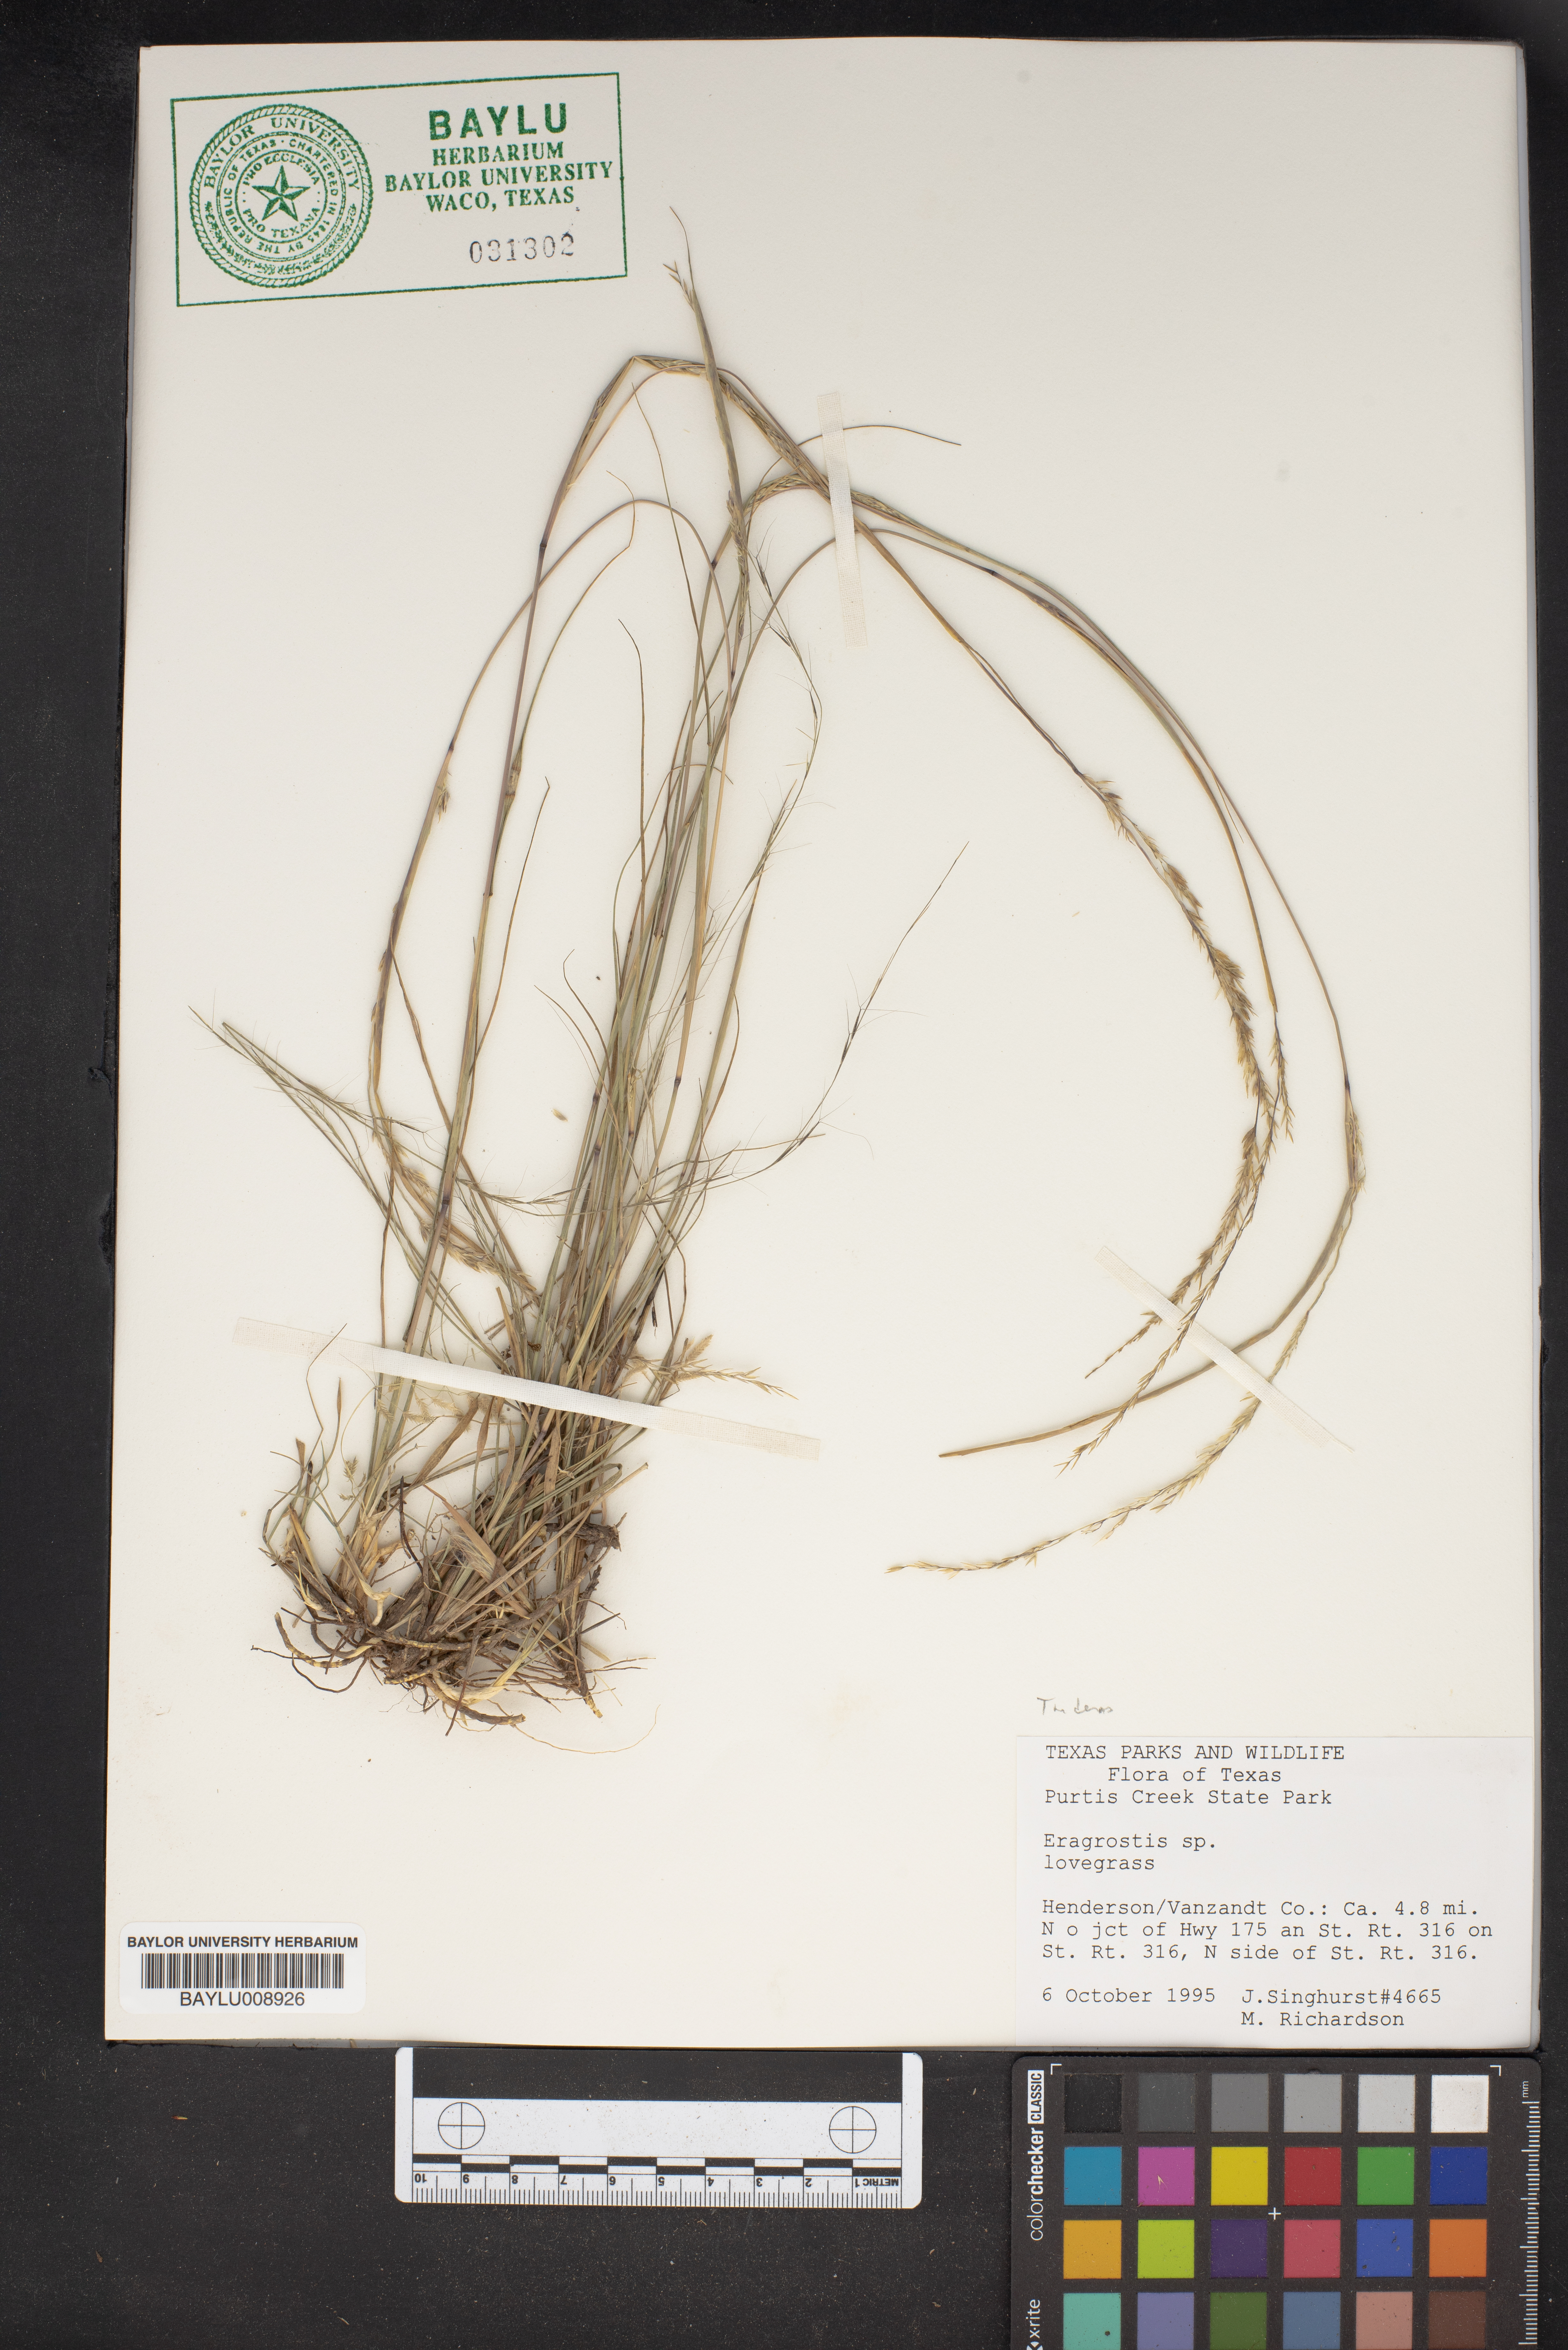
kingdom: Plantae
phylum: Tracheophyta
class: Liliopsida
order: Poales
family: Poaceae
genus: Eragrostis
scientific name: Eragrostis
